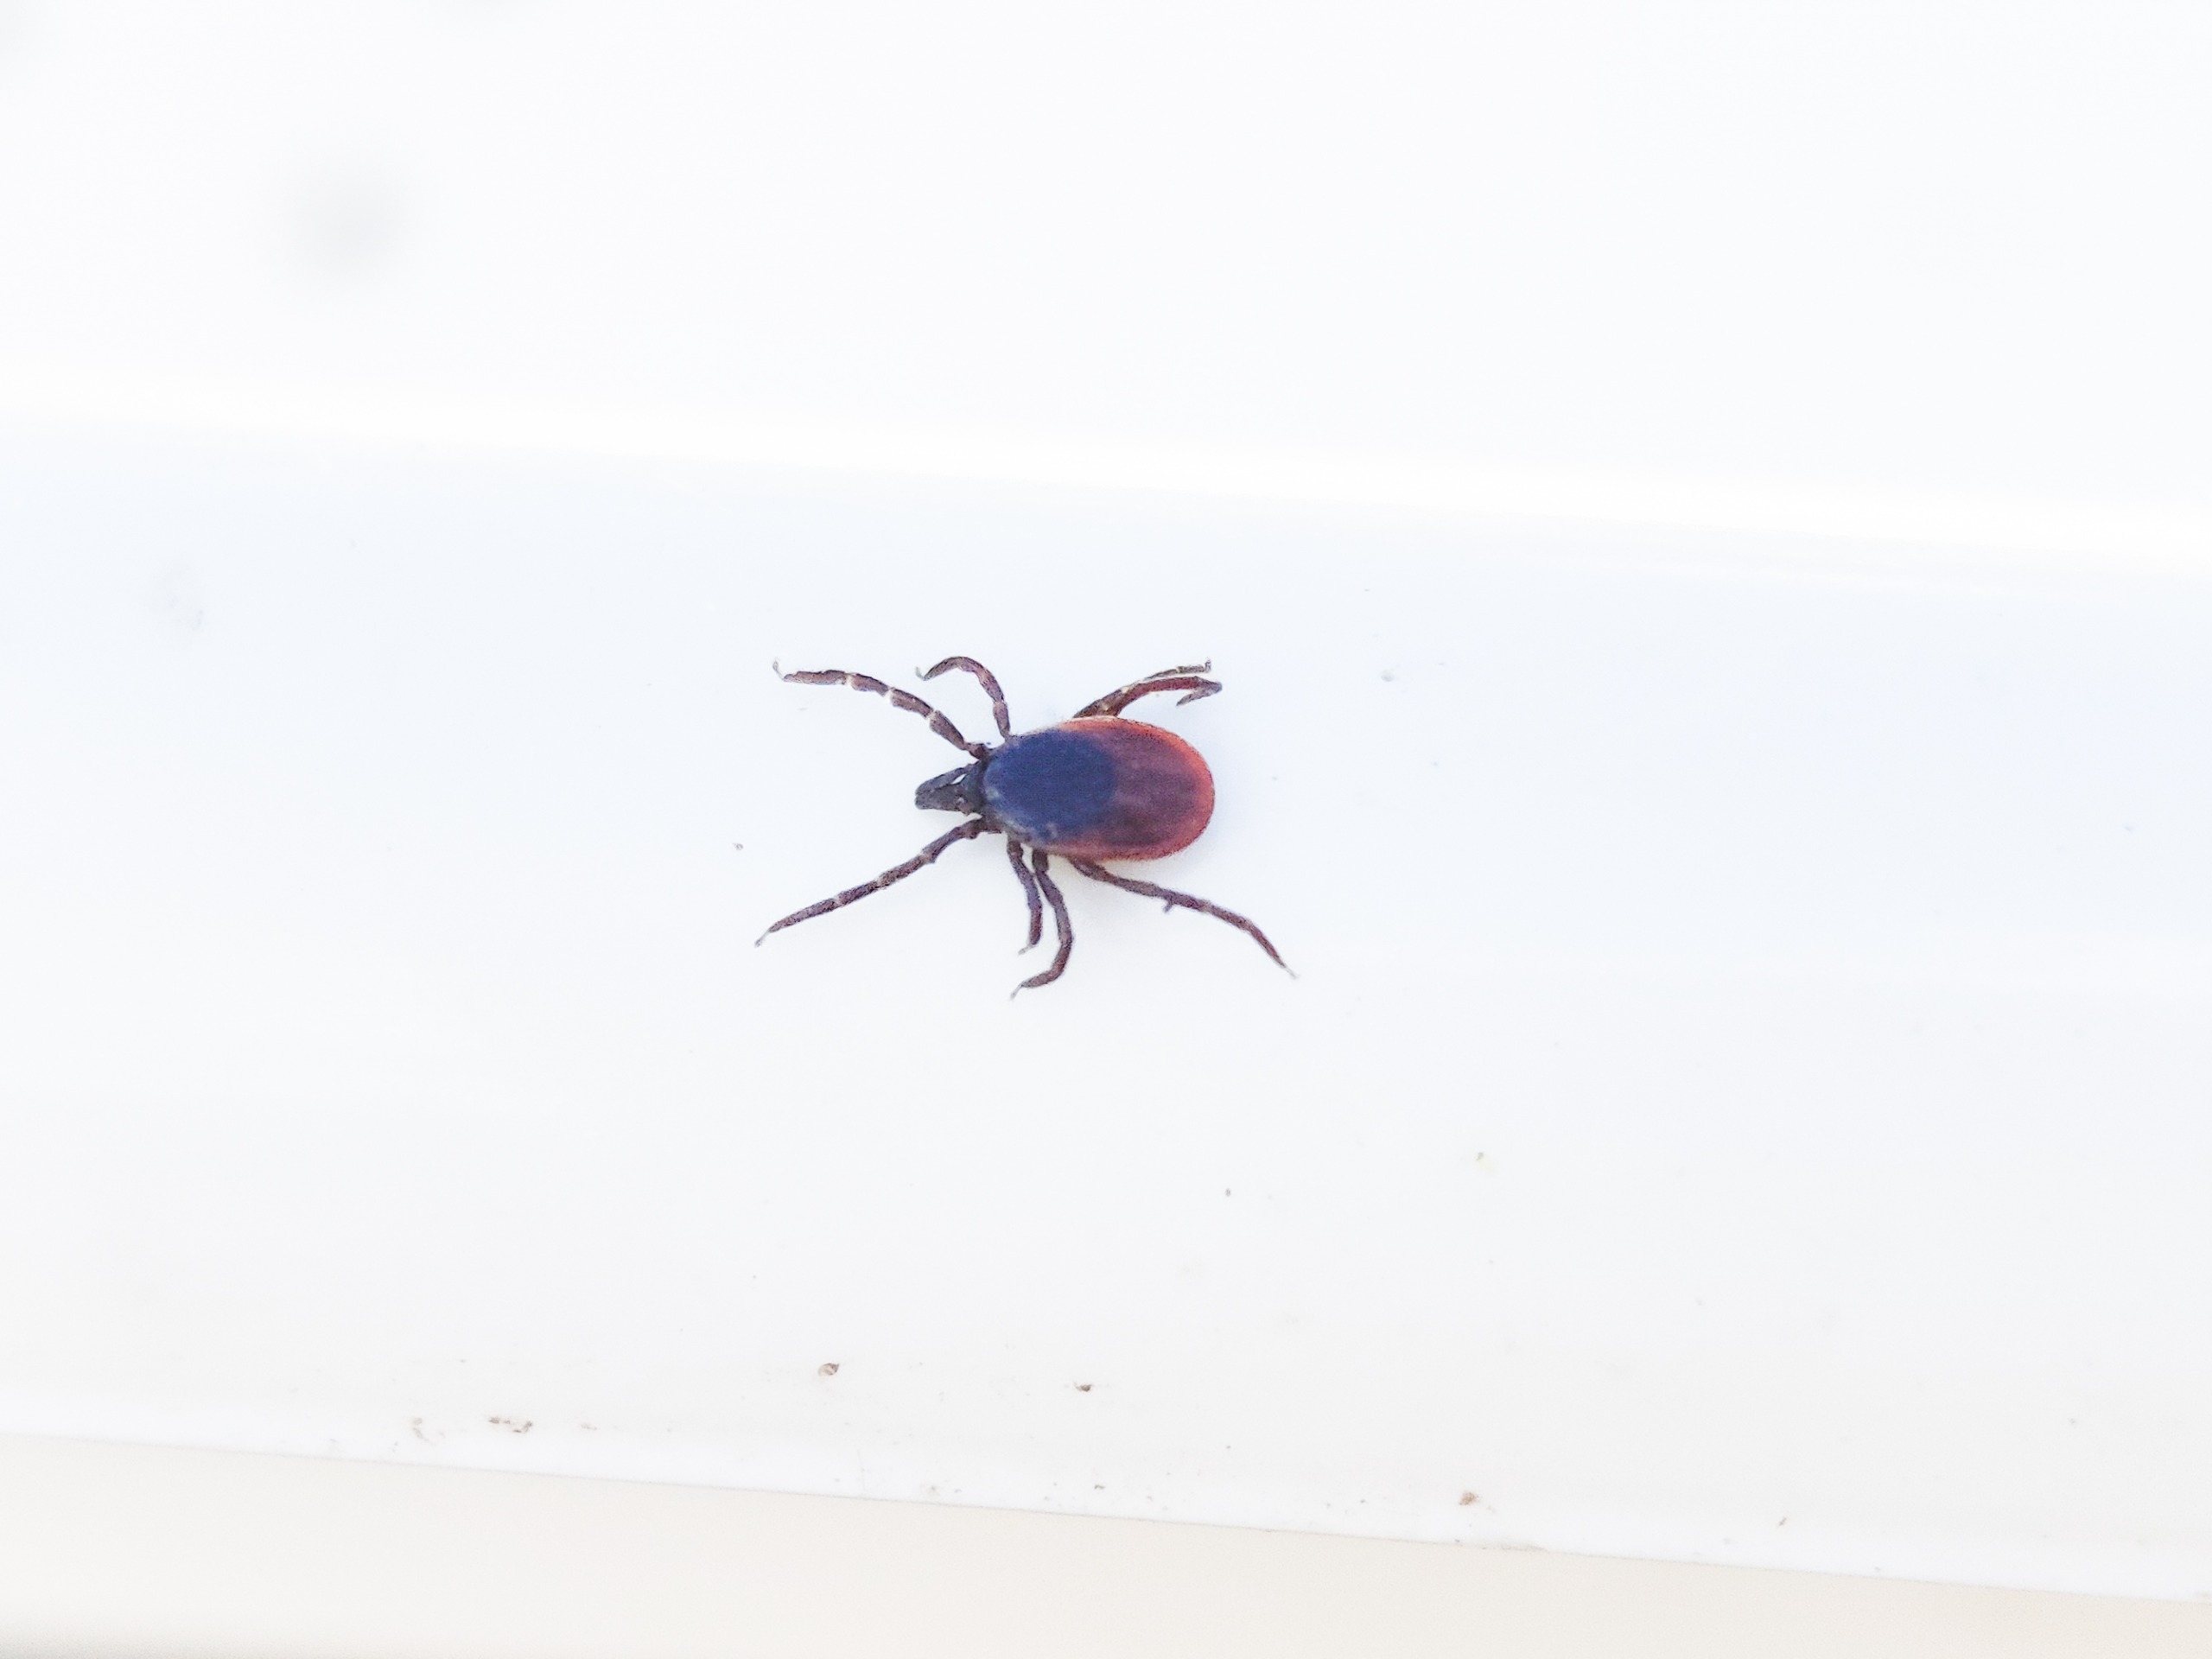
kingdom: Animalia
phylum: Arthropoda
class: Arachnida
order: Ixodida
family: Ixodidae
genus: Ixodes
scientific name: Ixodes ricinus
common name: Skovflåt
